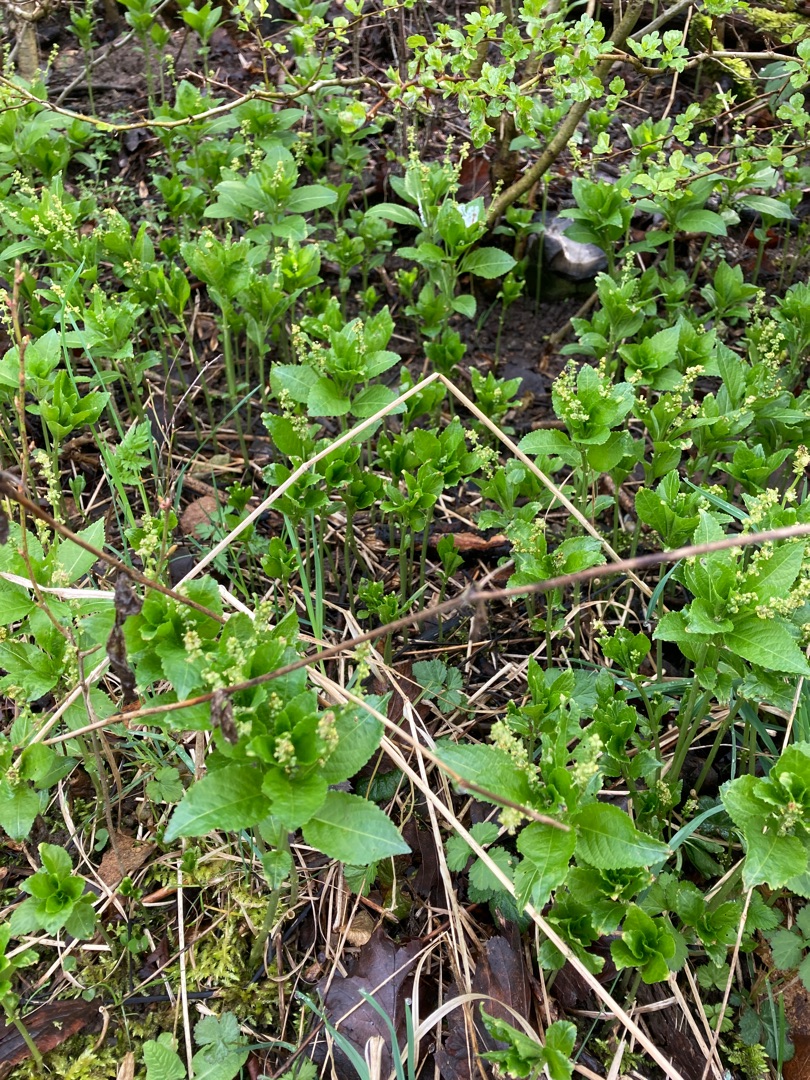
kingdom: Plantae
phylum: Tracheophyta
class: Magnoliopsida
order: Malpighiales
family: Euphorbiaceae
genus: Mercurialis
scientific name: Mercurialis perennis
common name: Almindelig bingelurt
